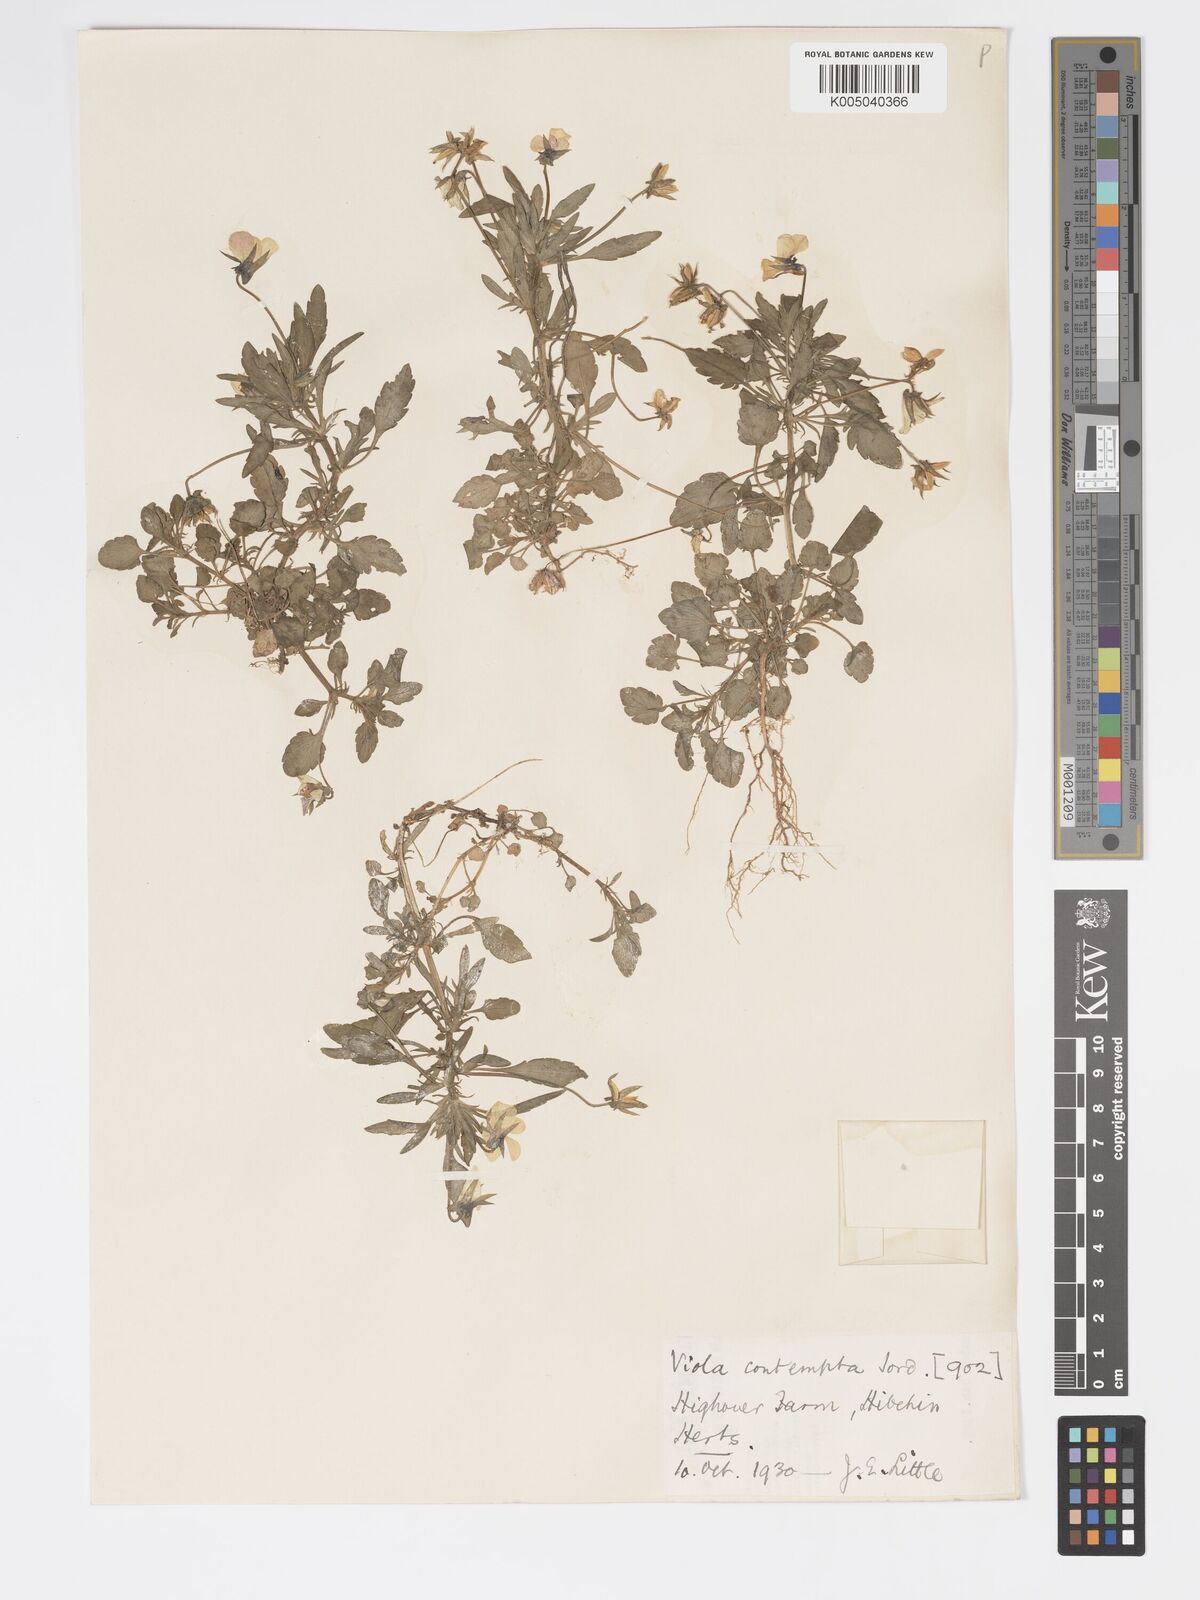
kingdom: Plantae
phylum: Tracheophyta
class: Magnoliopsida
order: Malpighiales
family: Violaceae
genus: Viola
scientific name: Viola arvensis
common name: Field pansy
